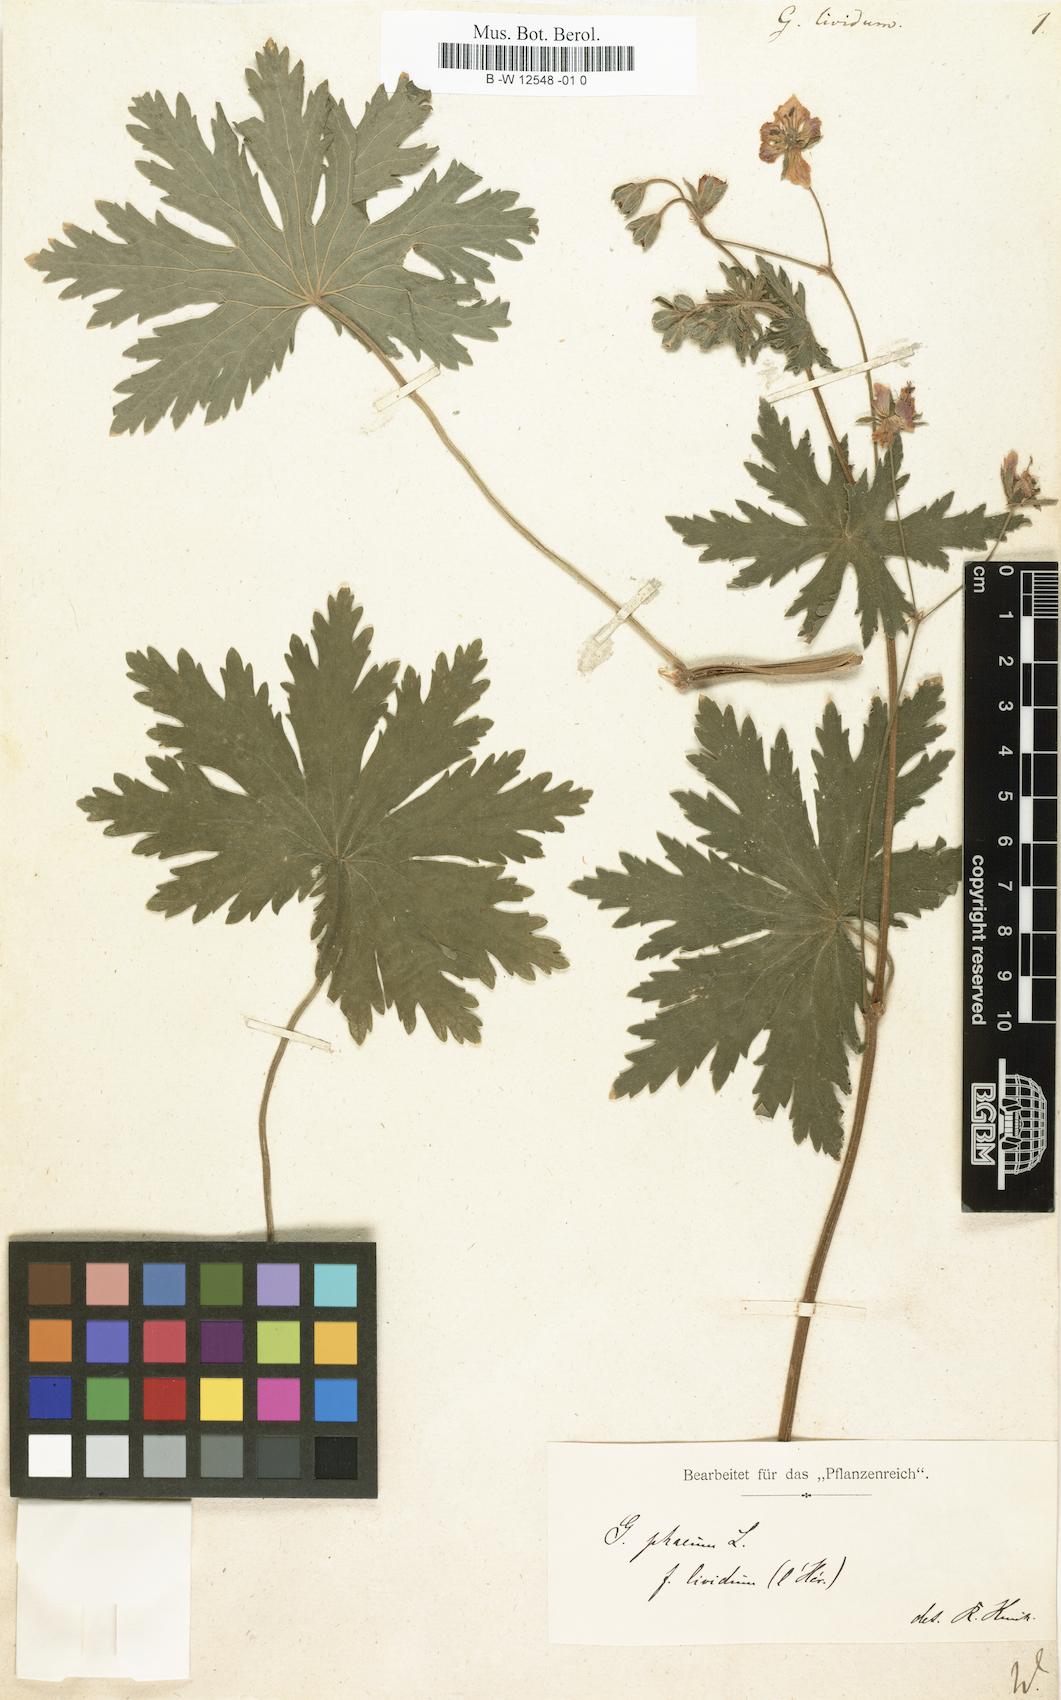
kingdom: Plantae
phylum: Tracheophyta
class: Magnoliopsida
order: Geraniales
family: Geraniaceae
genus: Geranium
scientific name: Geranium phaeum
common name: Dusky crane's-bill
